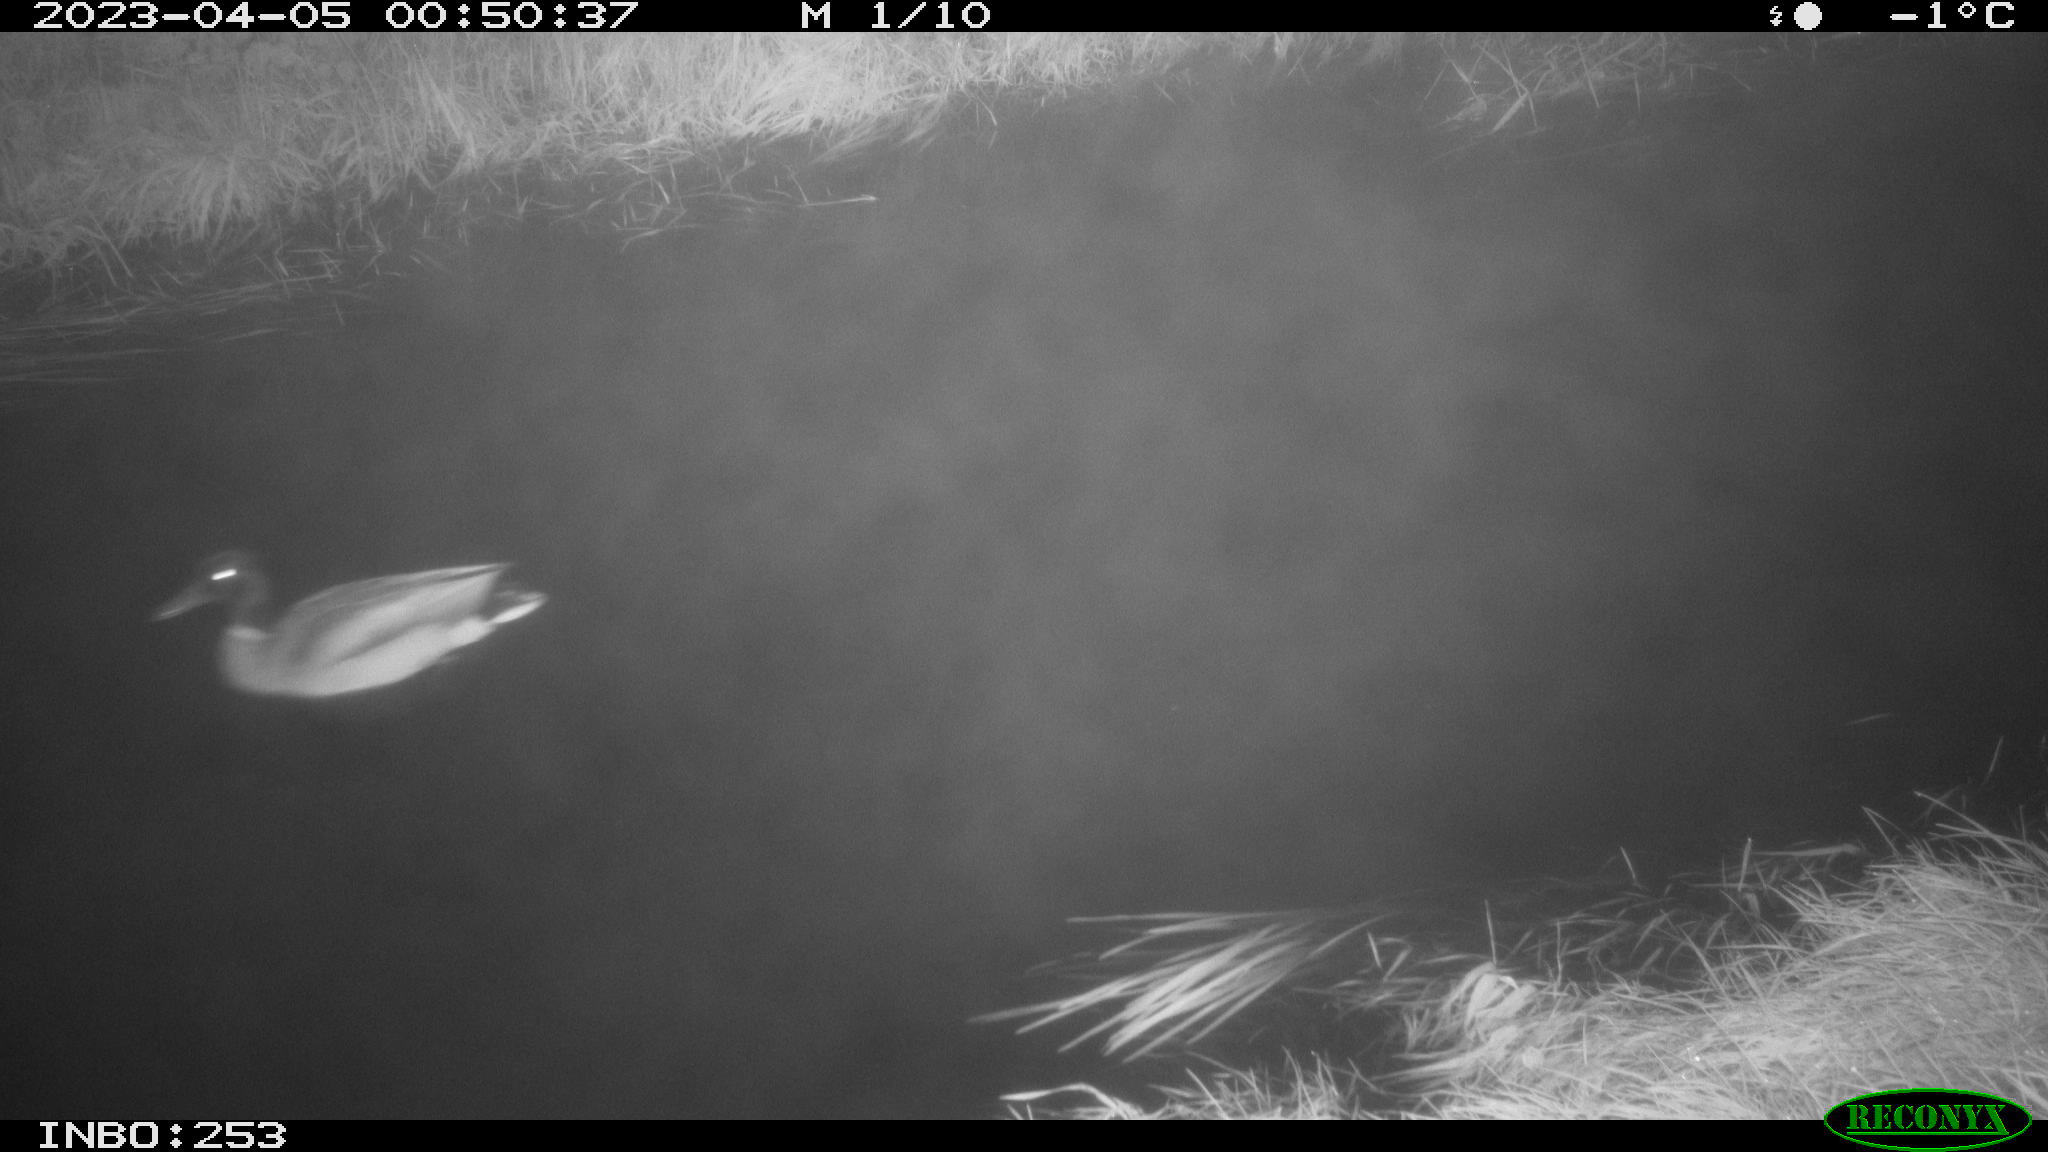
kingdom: Animalia
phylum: Chordata
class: Aves
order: Anseriformes
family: Anatidae
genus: Anas
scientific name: Anas
